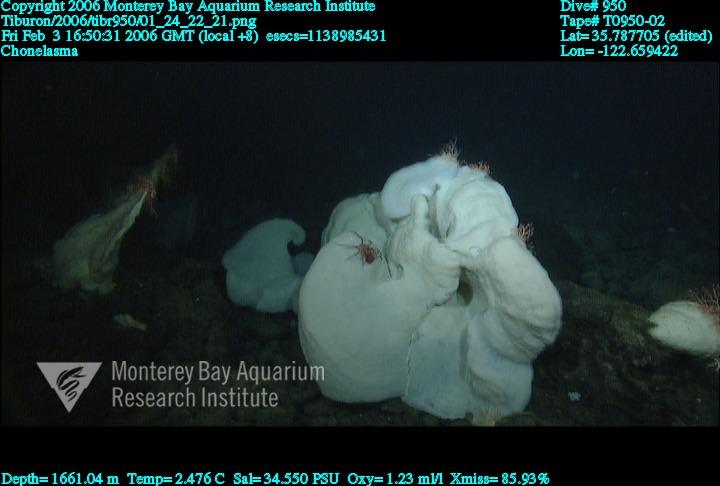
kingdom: Animalia
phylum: Porifera
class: Hexactinellida
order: Sceptrulophora
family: Euretidae
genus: Chonelasma
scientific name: Chonelasma
